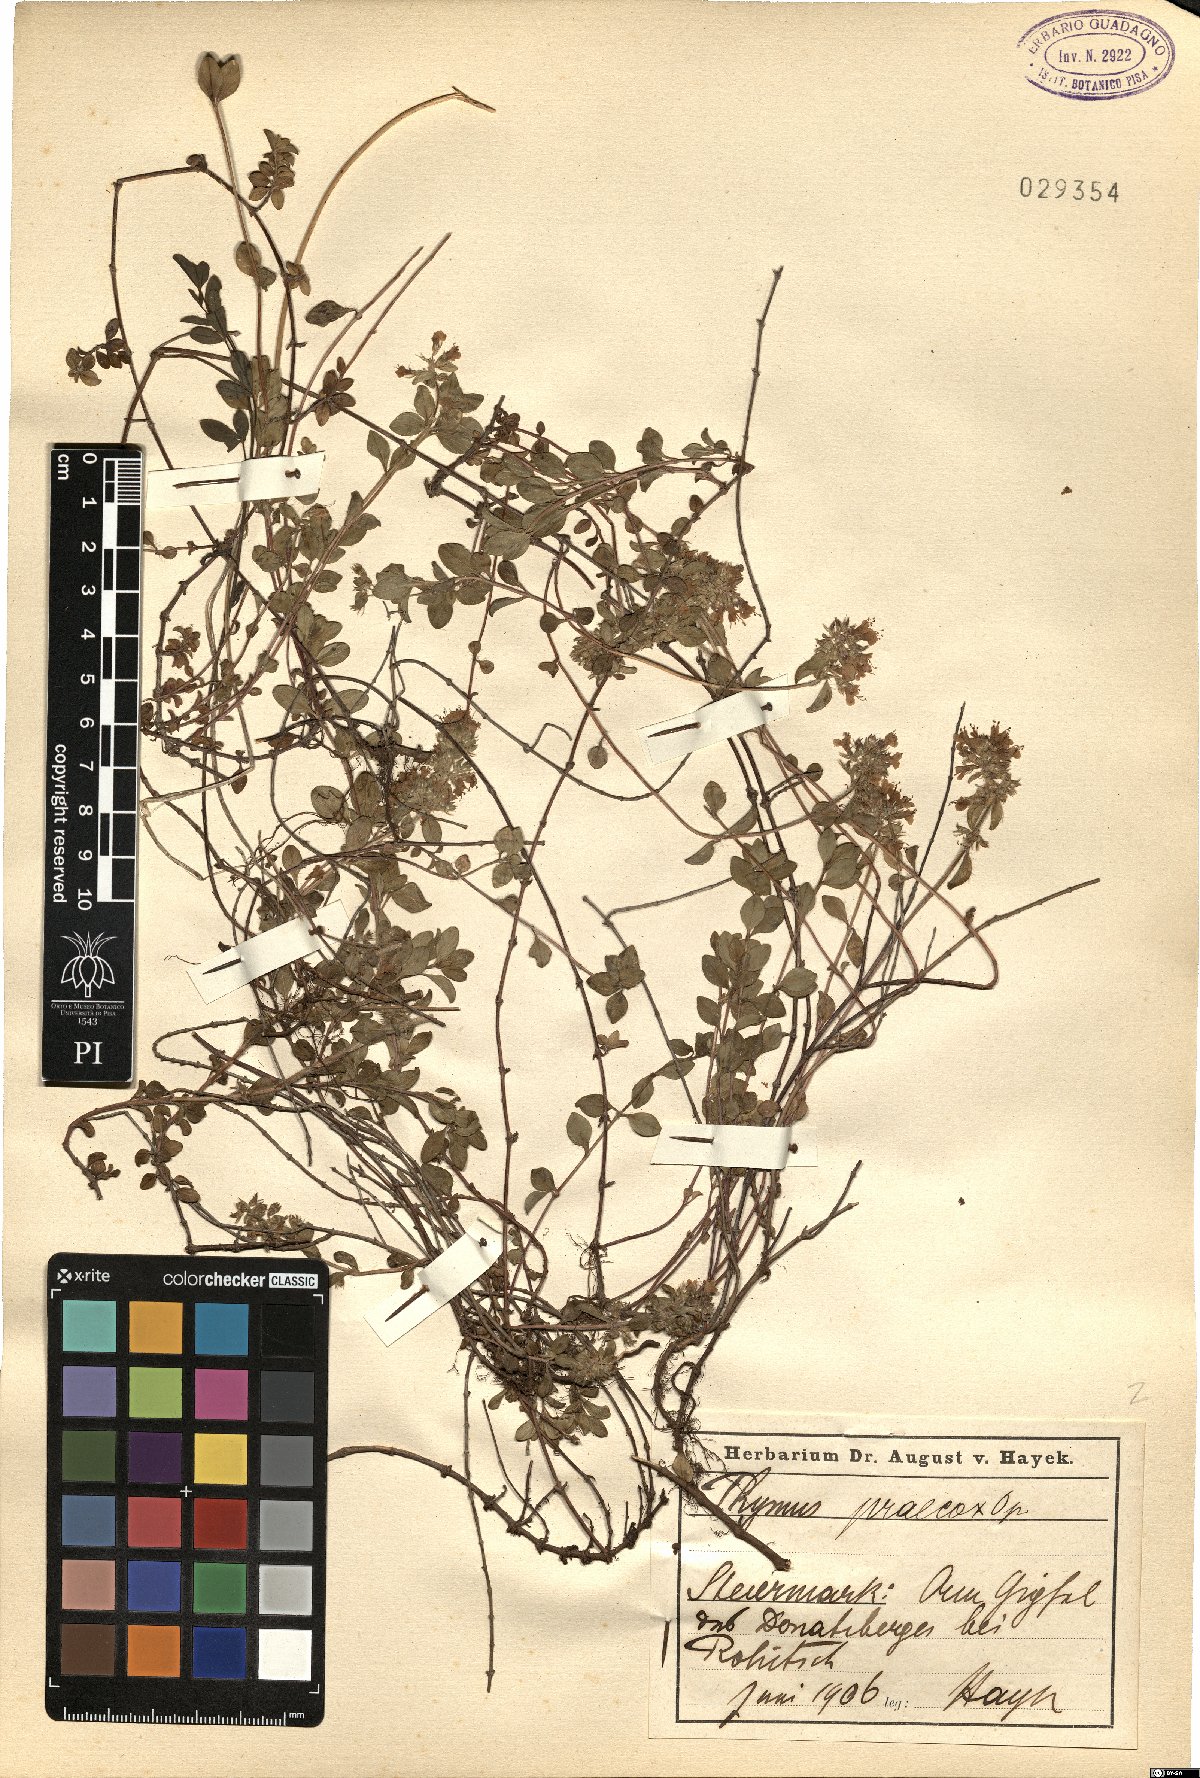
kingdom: Plantae
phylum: Tracheophyta
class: Magnoliopsida
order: Lamiales
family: Lamiaceae
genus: Thymus
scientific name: Thymus praecox
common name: Wild thyme
